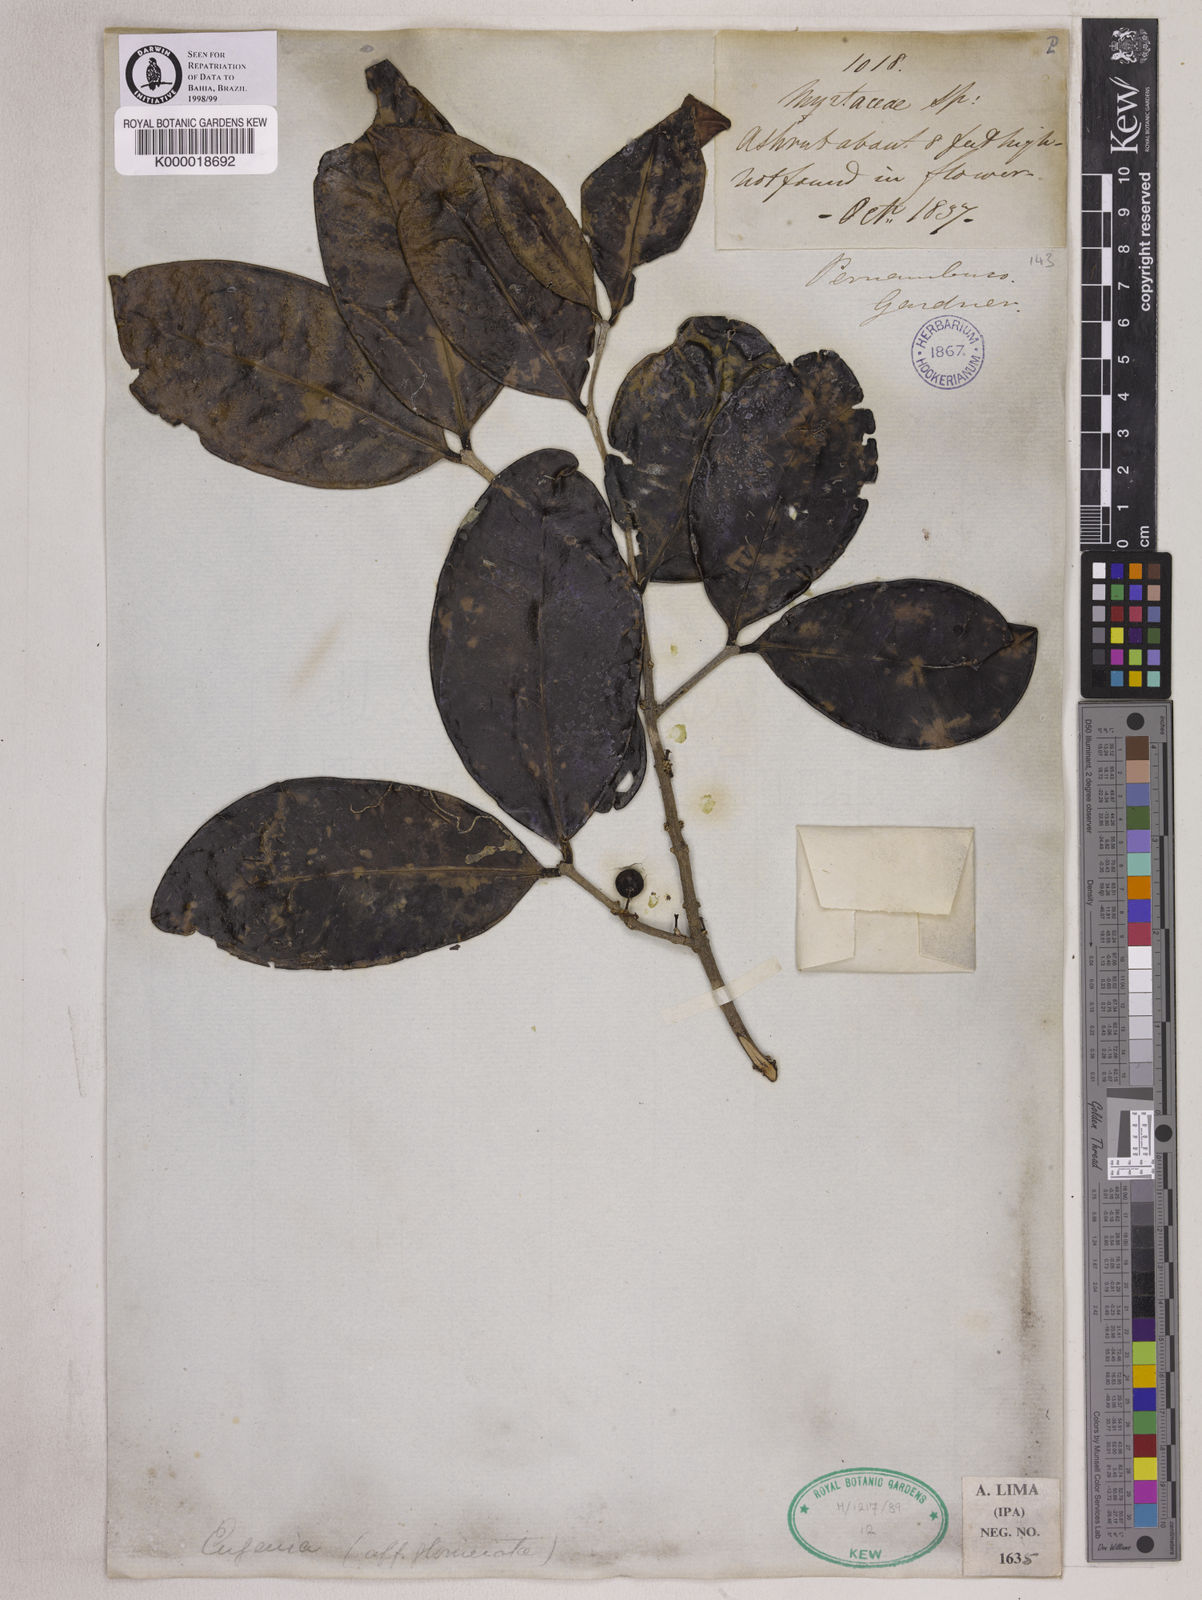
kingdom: Plantae
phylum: Tracheophyta
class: Magnoliopsida
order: Myrtales
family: Myrtaceae
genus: Eugenia
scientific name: Eugenia
